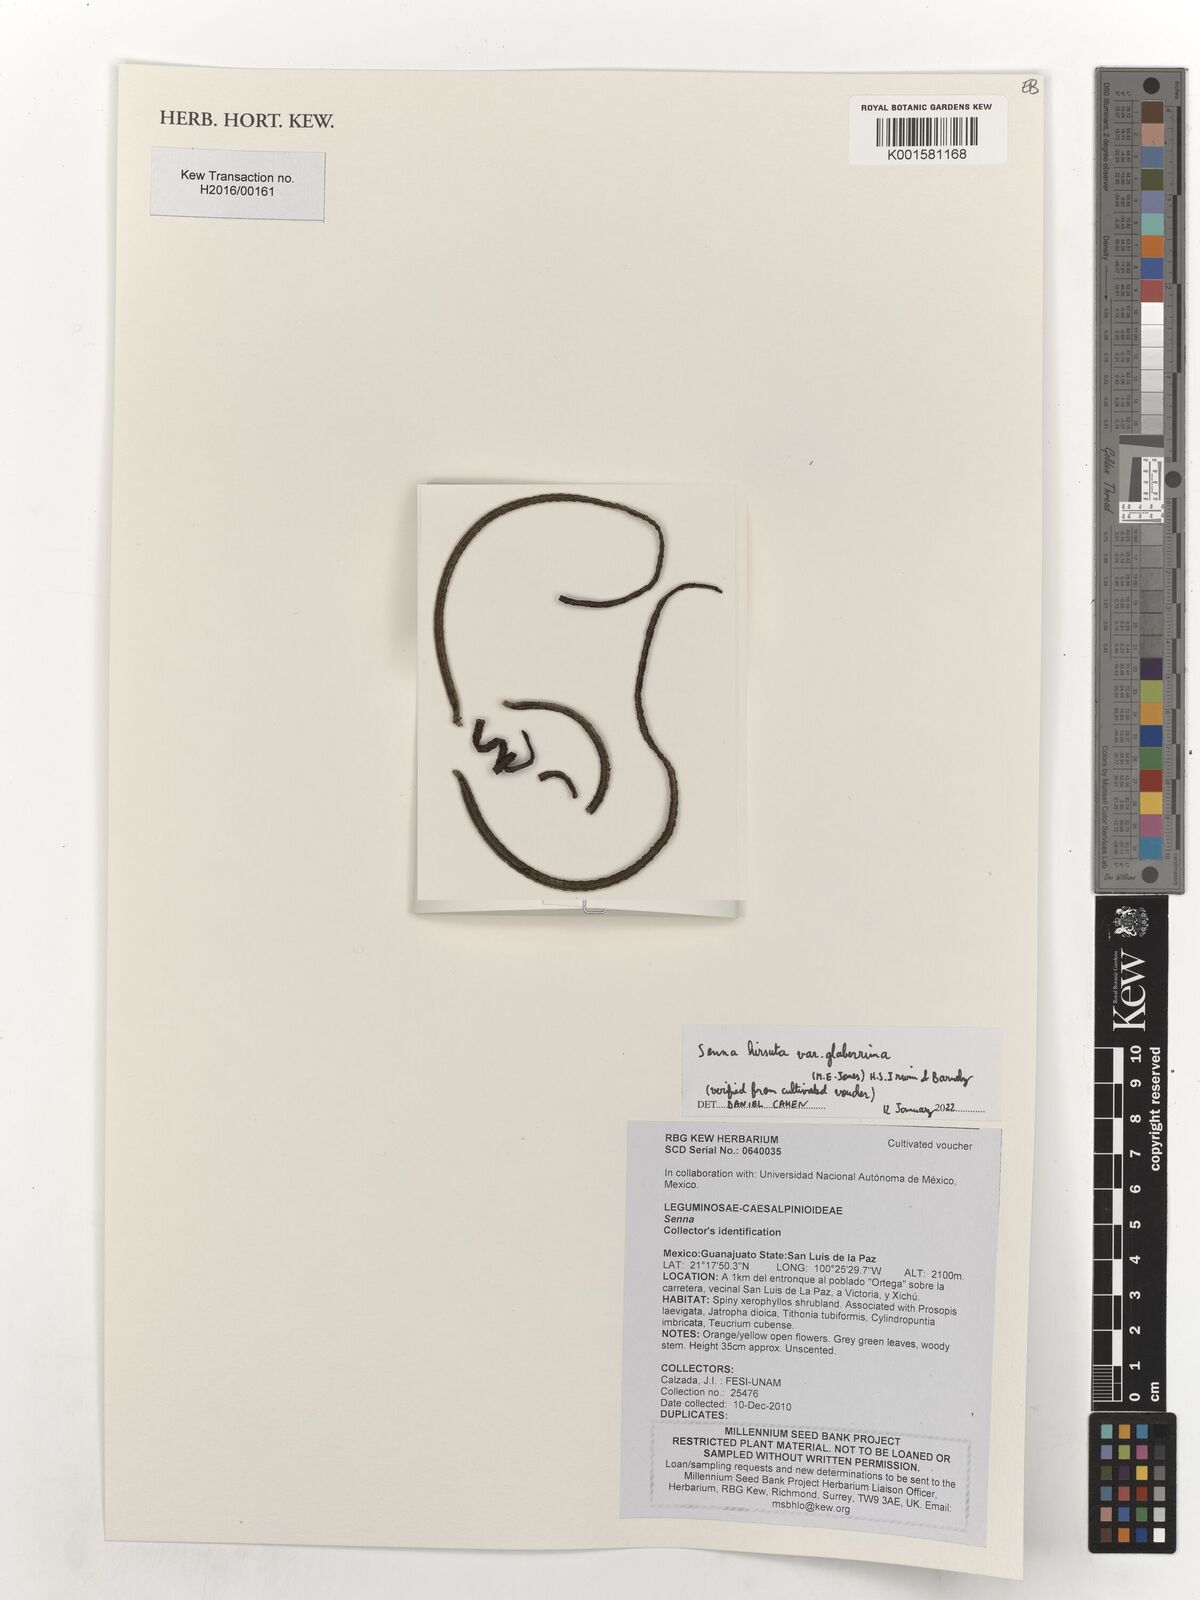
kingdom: Plantae
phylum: Tracheophyta
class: Magnoliopsida
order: Fabales
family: Fabaceae
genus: Senna
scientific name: Senna hirsuta
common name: Woolly senna
